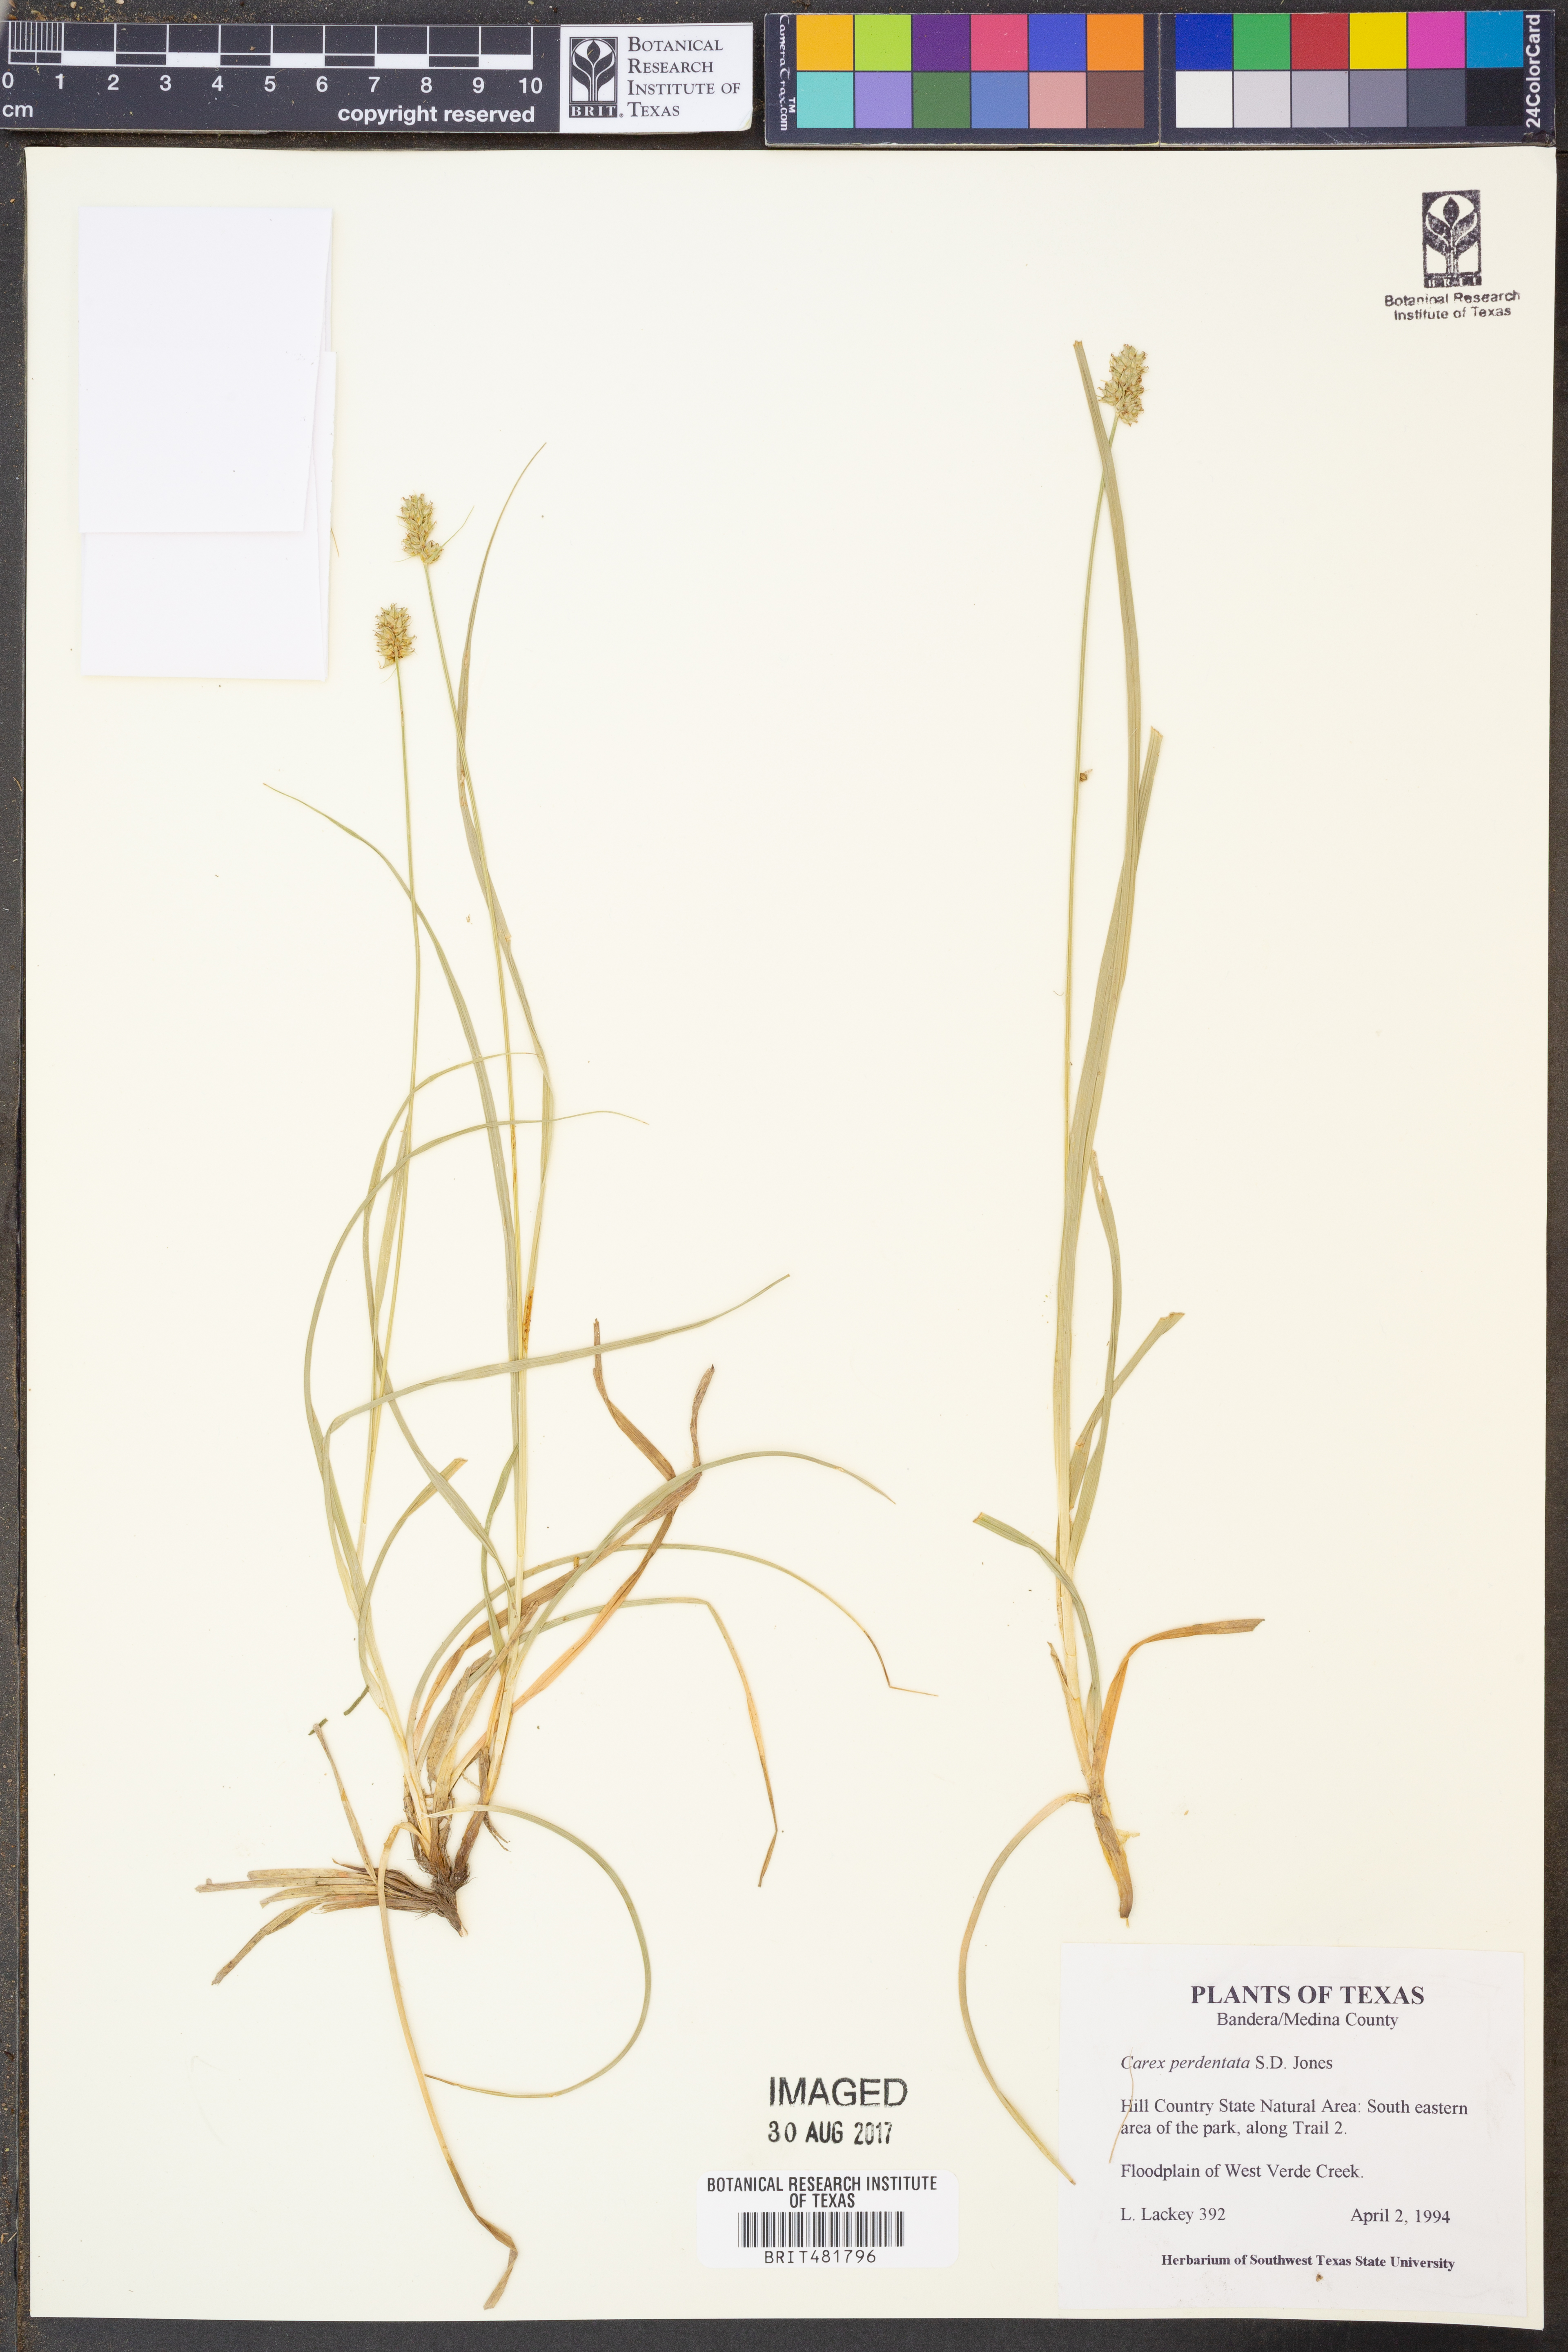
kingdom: Plantae
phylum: Tracheophyta
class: Liliopsida
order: Poales
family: Cyperaceae
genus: Carex
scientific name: Carex perdentata
